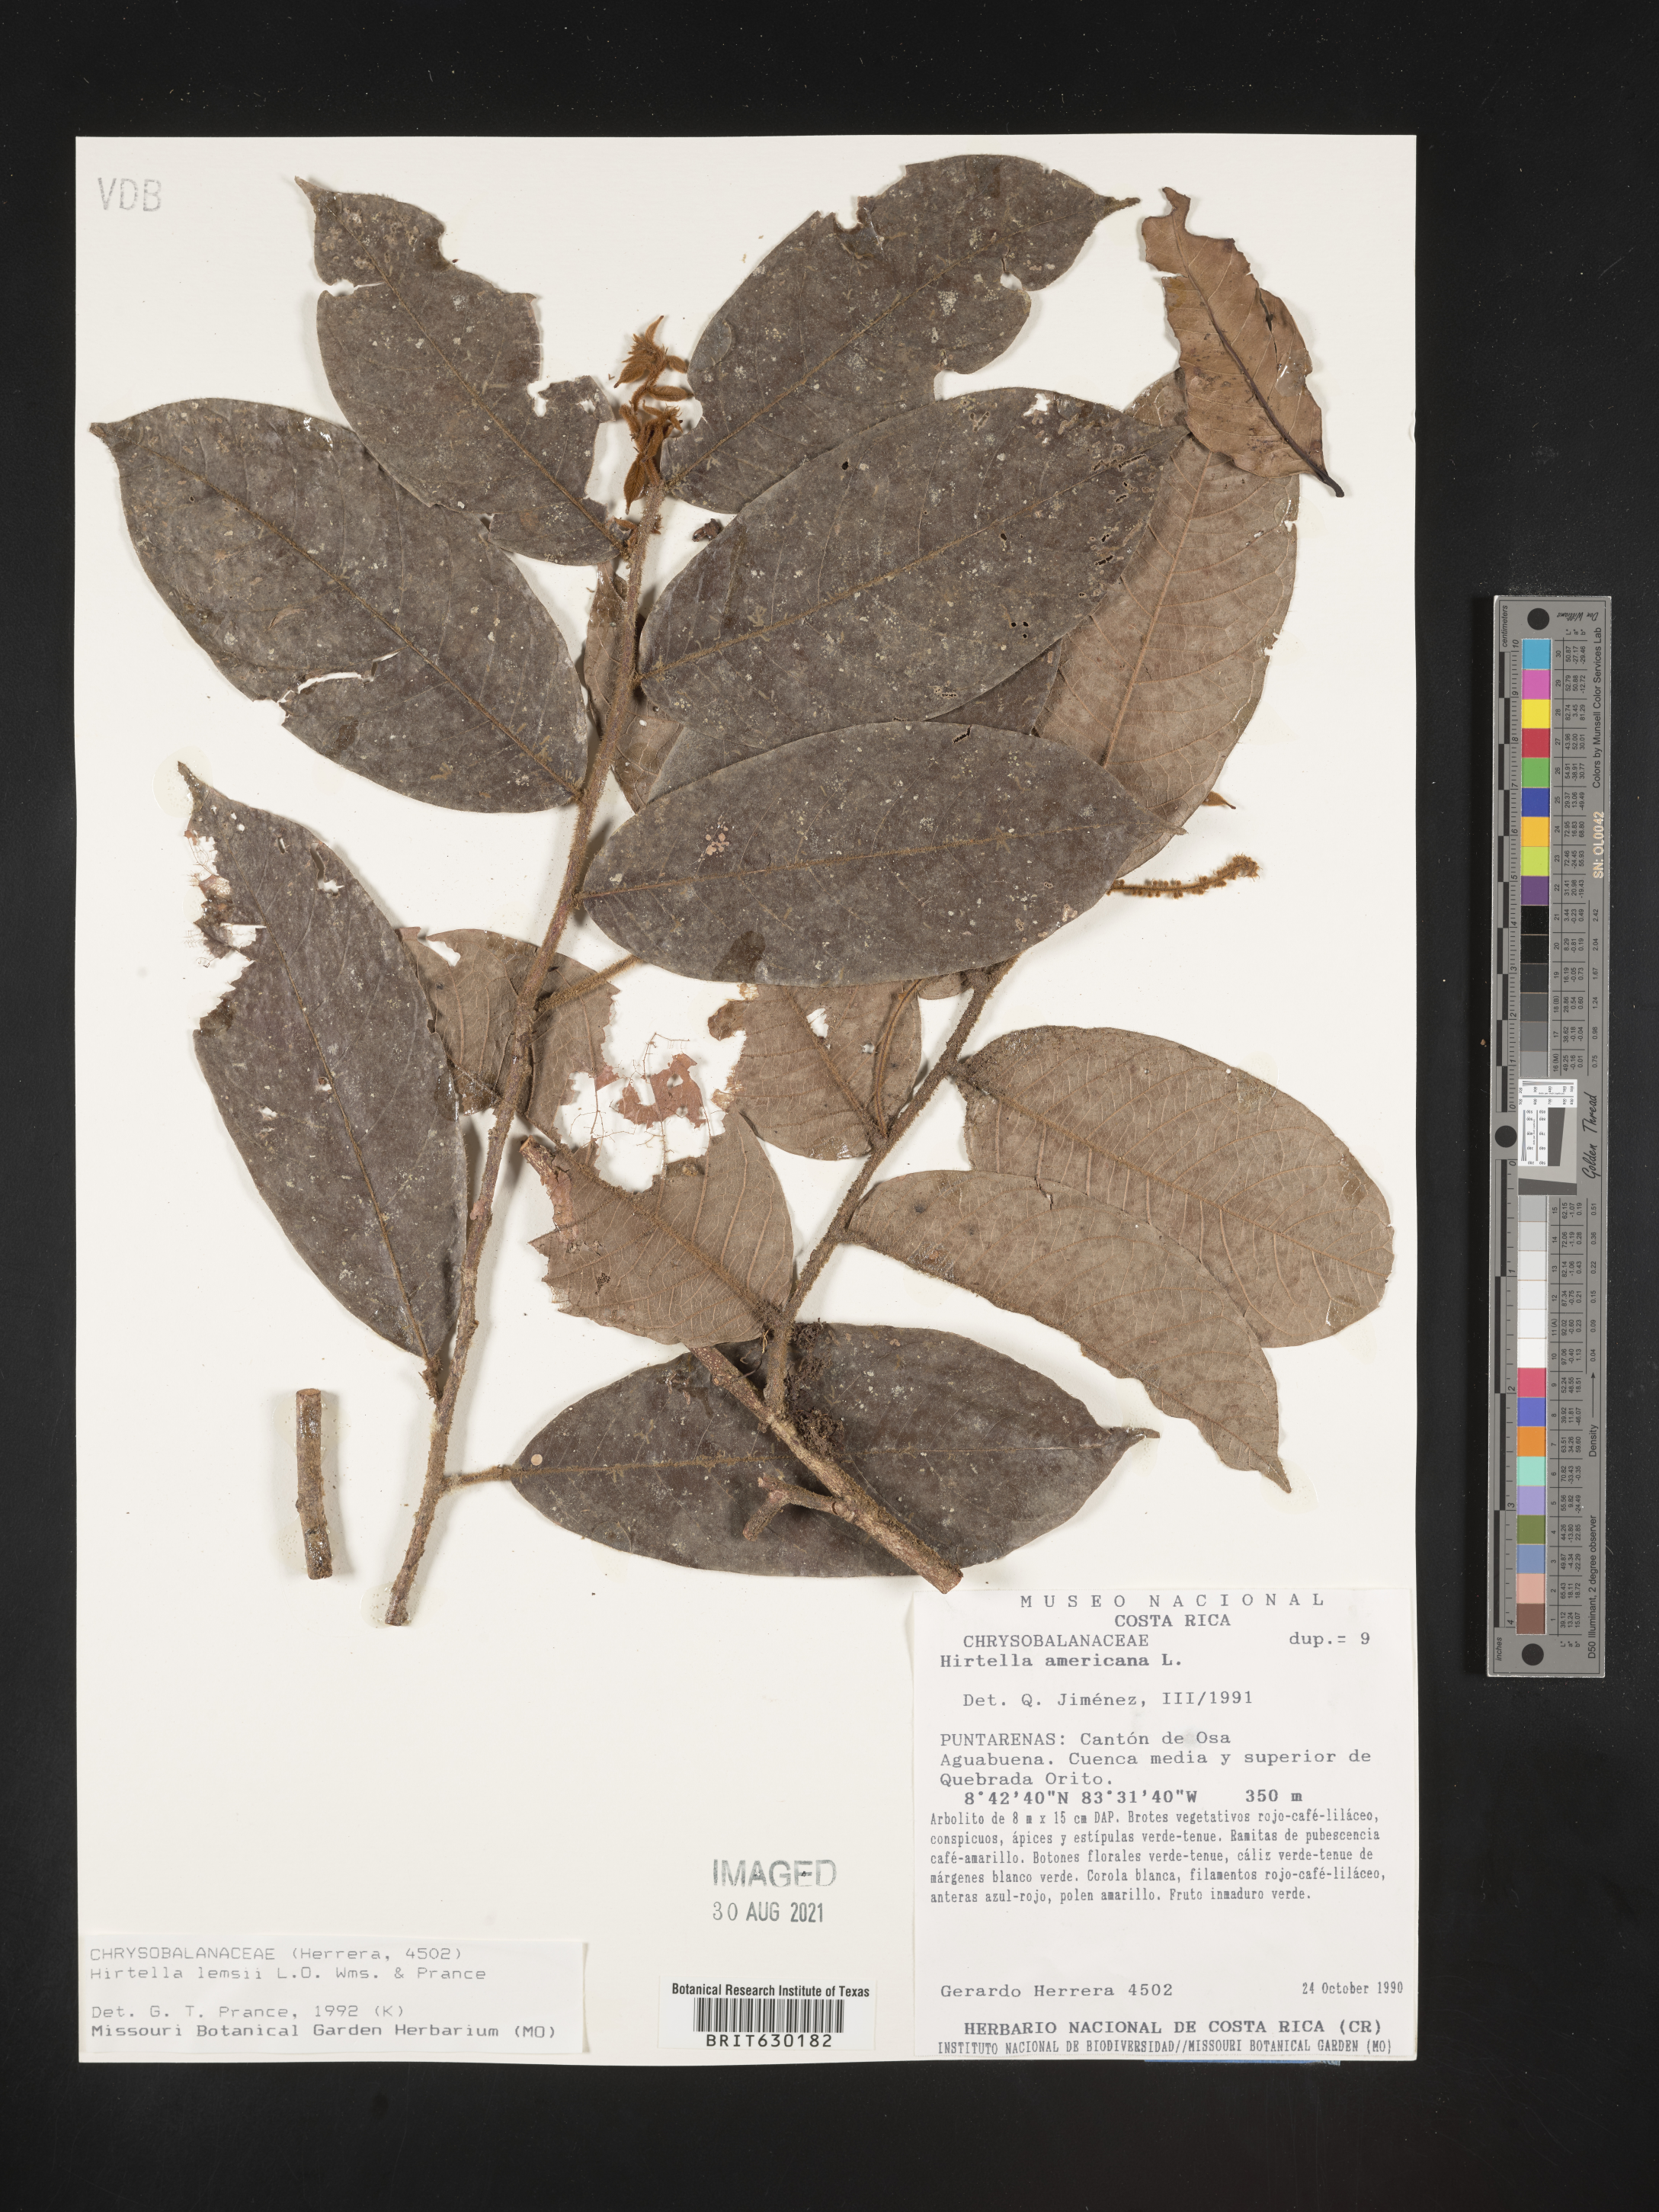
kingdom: Plantae
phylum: Tracheophyta
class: Magnoliopsida
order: Malpighiales
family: Chrysobalanaceae
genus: Hirtella
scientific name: Hirtella lemsii
